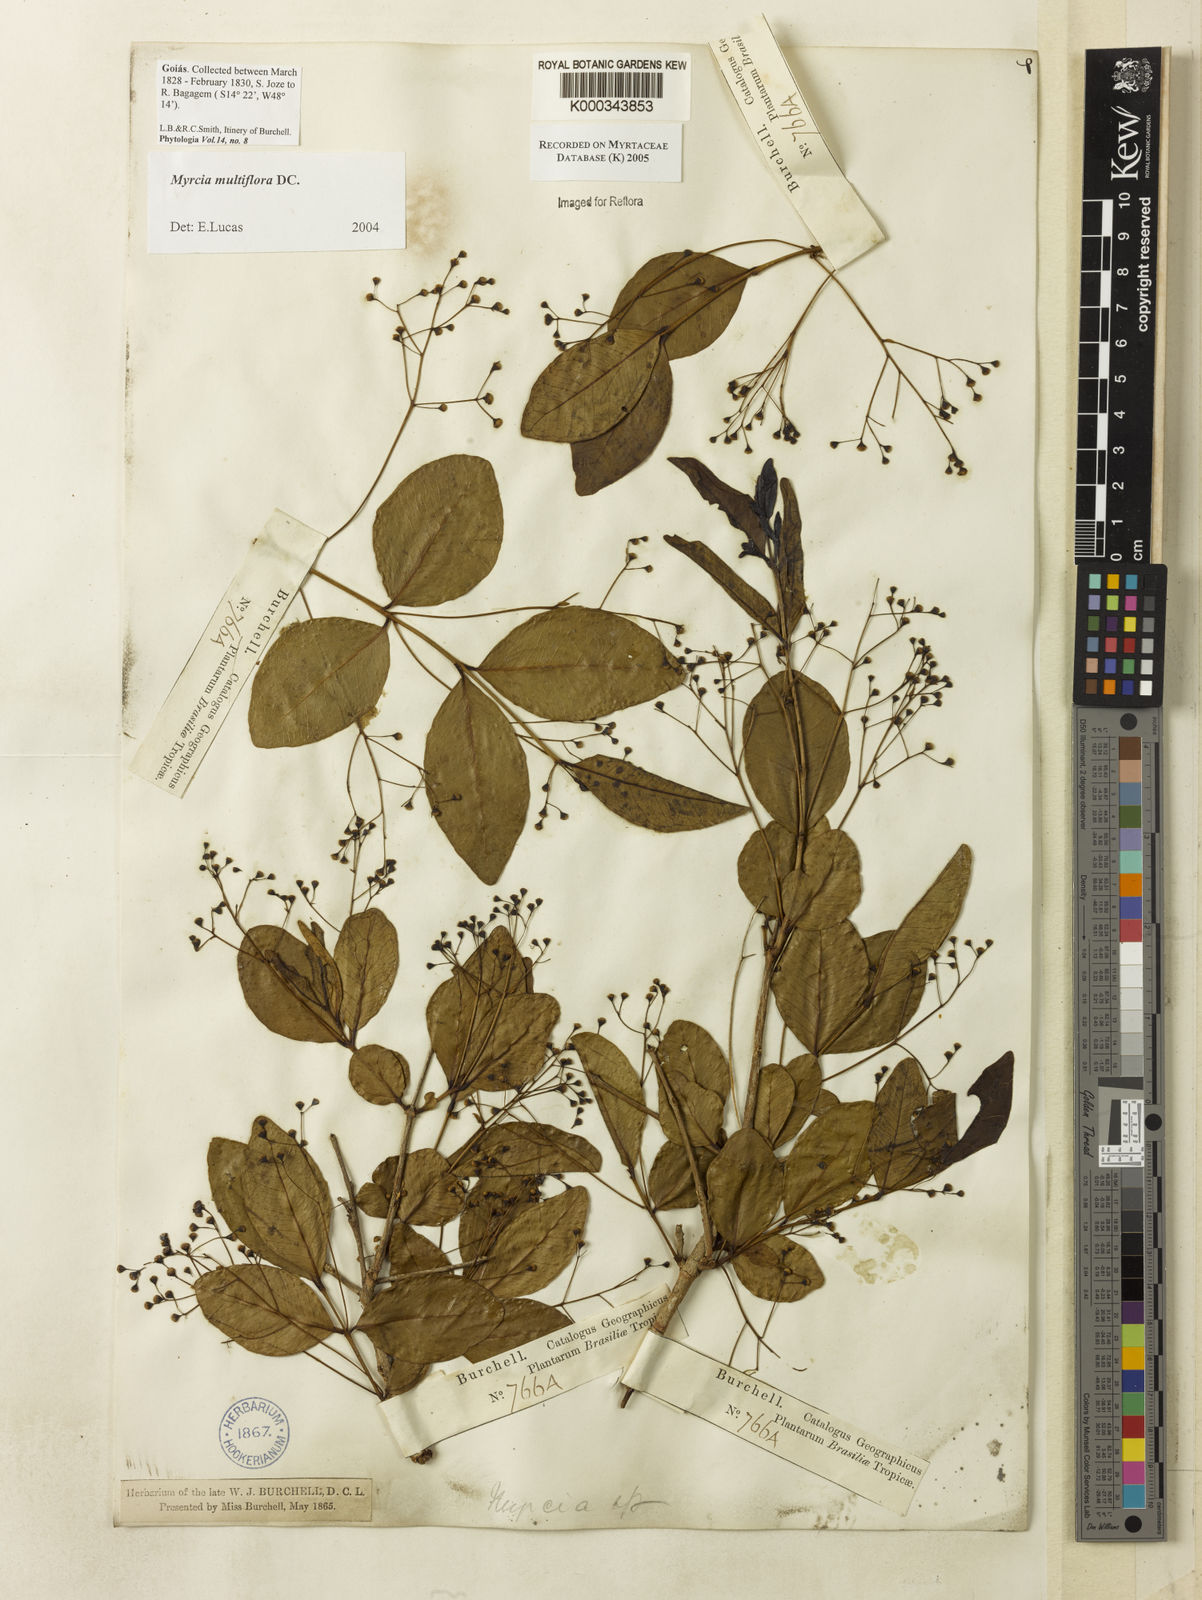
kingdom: Plantae
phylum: Tracheophyta
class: Magnoliopsida
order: Myrtales
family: Myrtaceae
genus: Myrcia
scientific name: Myrcia multiflora
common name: Pedra hume
